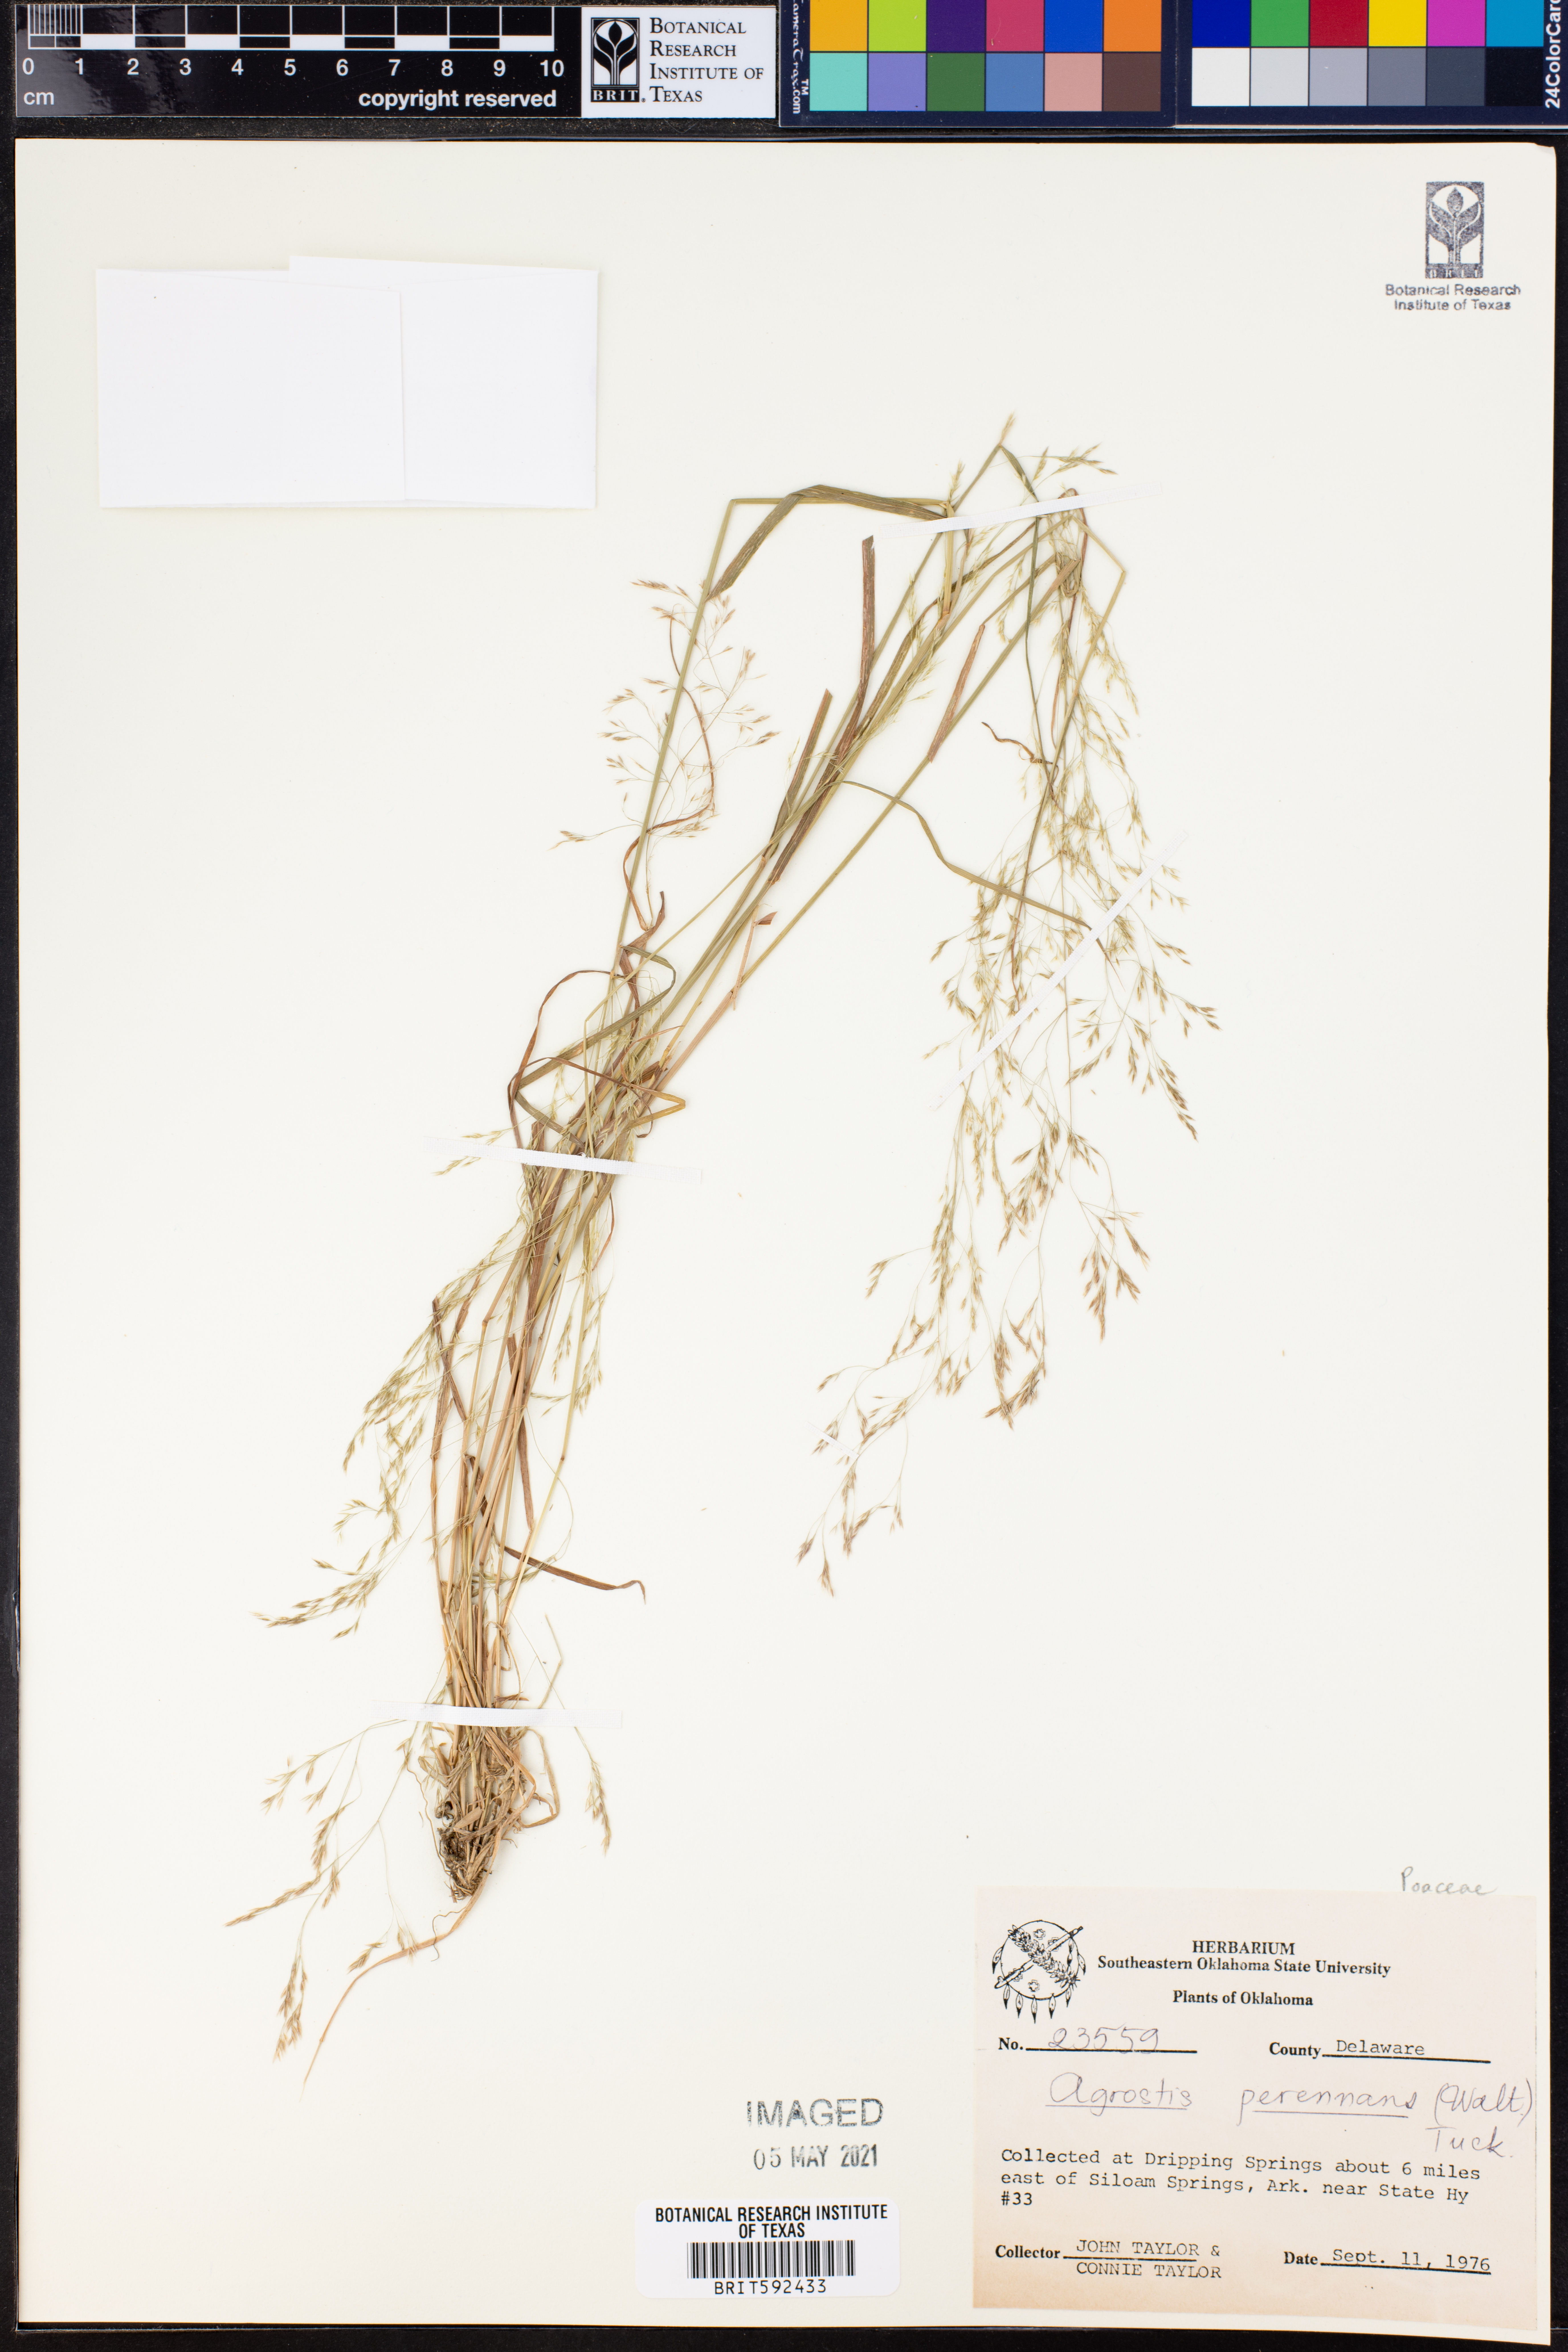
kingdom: Plantae
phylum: Tracheophyta
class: Liliopsida
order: Poales
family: Poaceae
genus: Agrostis
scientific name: Agrostis perennans
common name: Autumn bent
